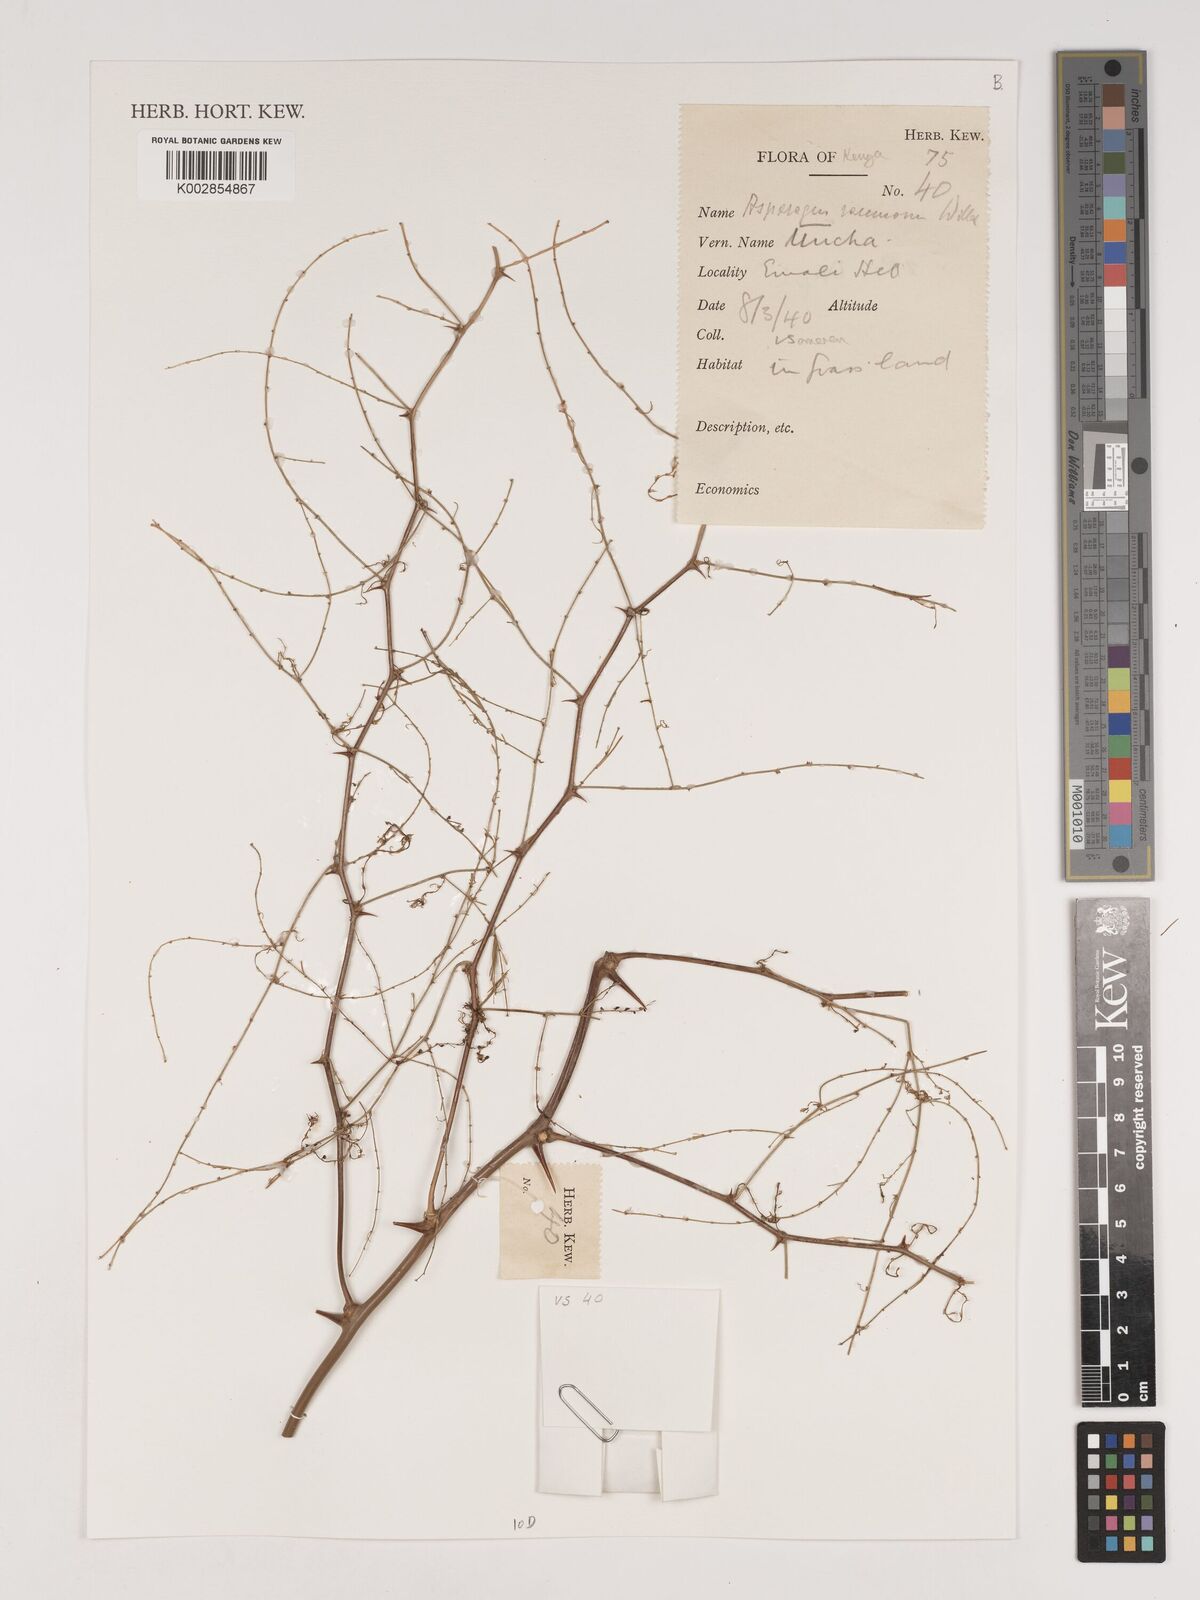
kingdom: Plantae
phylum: Tracheophyta
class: Liliopsida
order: Asparagales
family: Asparagaceae
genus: Asparagus
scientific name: Asparagus racemosus
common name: Asparagus-fern
